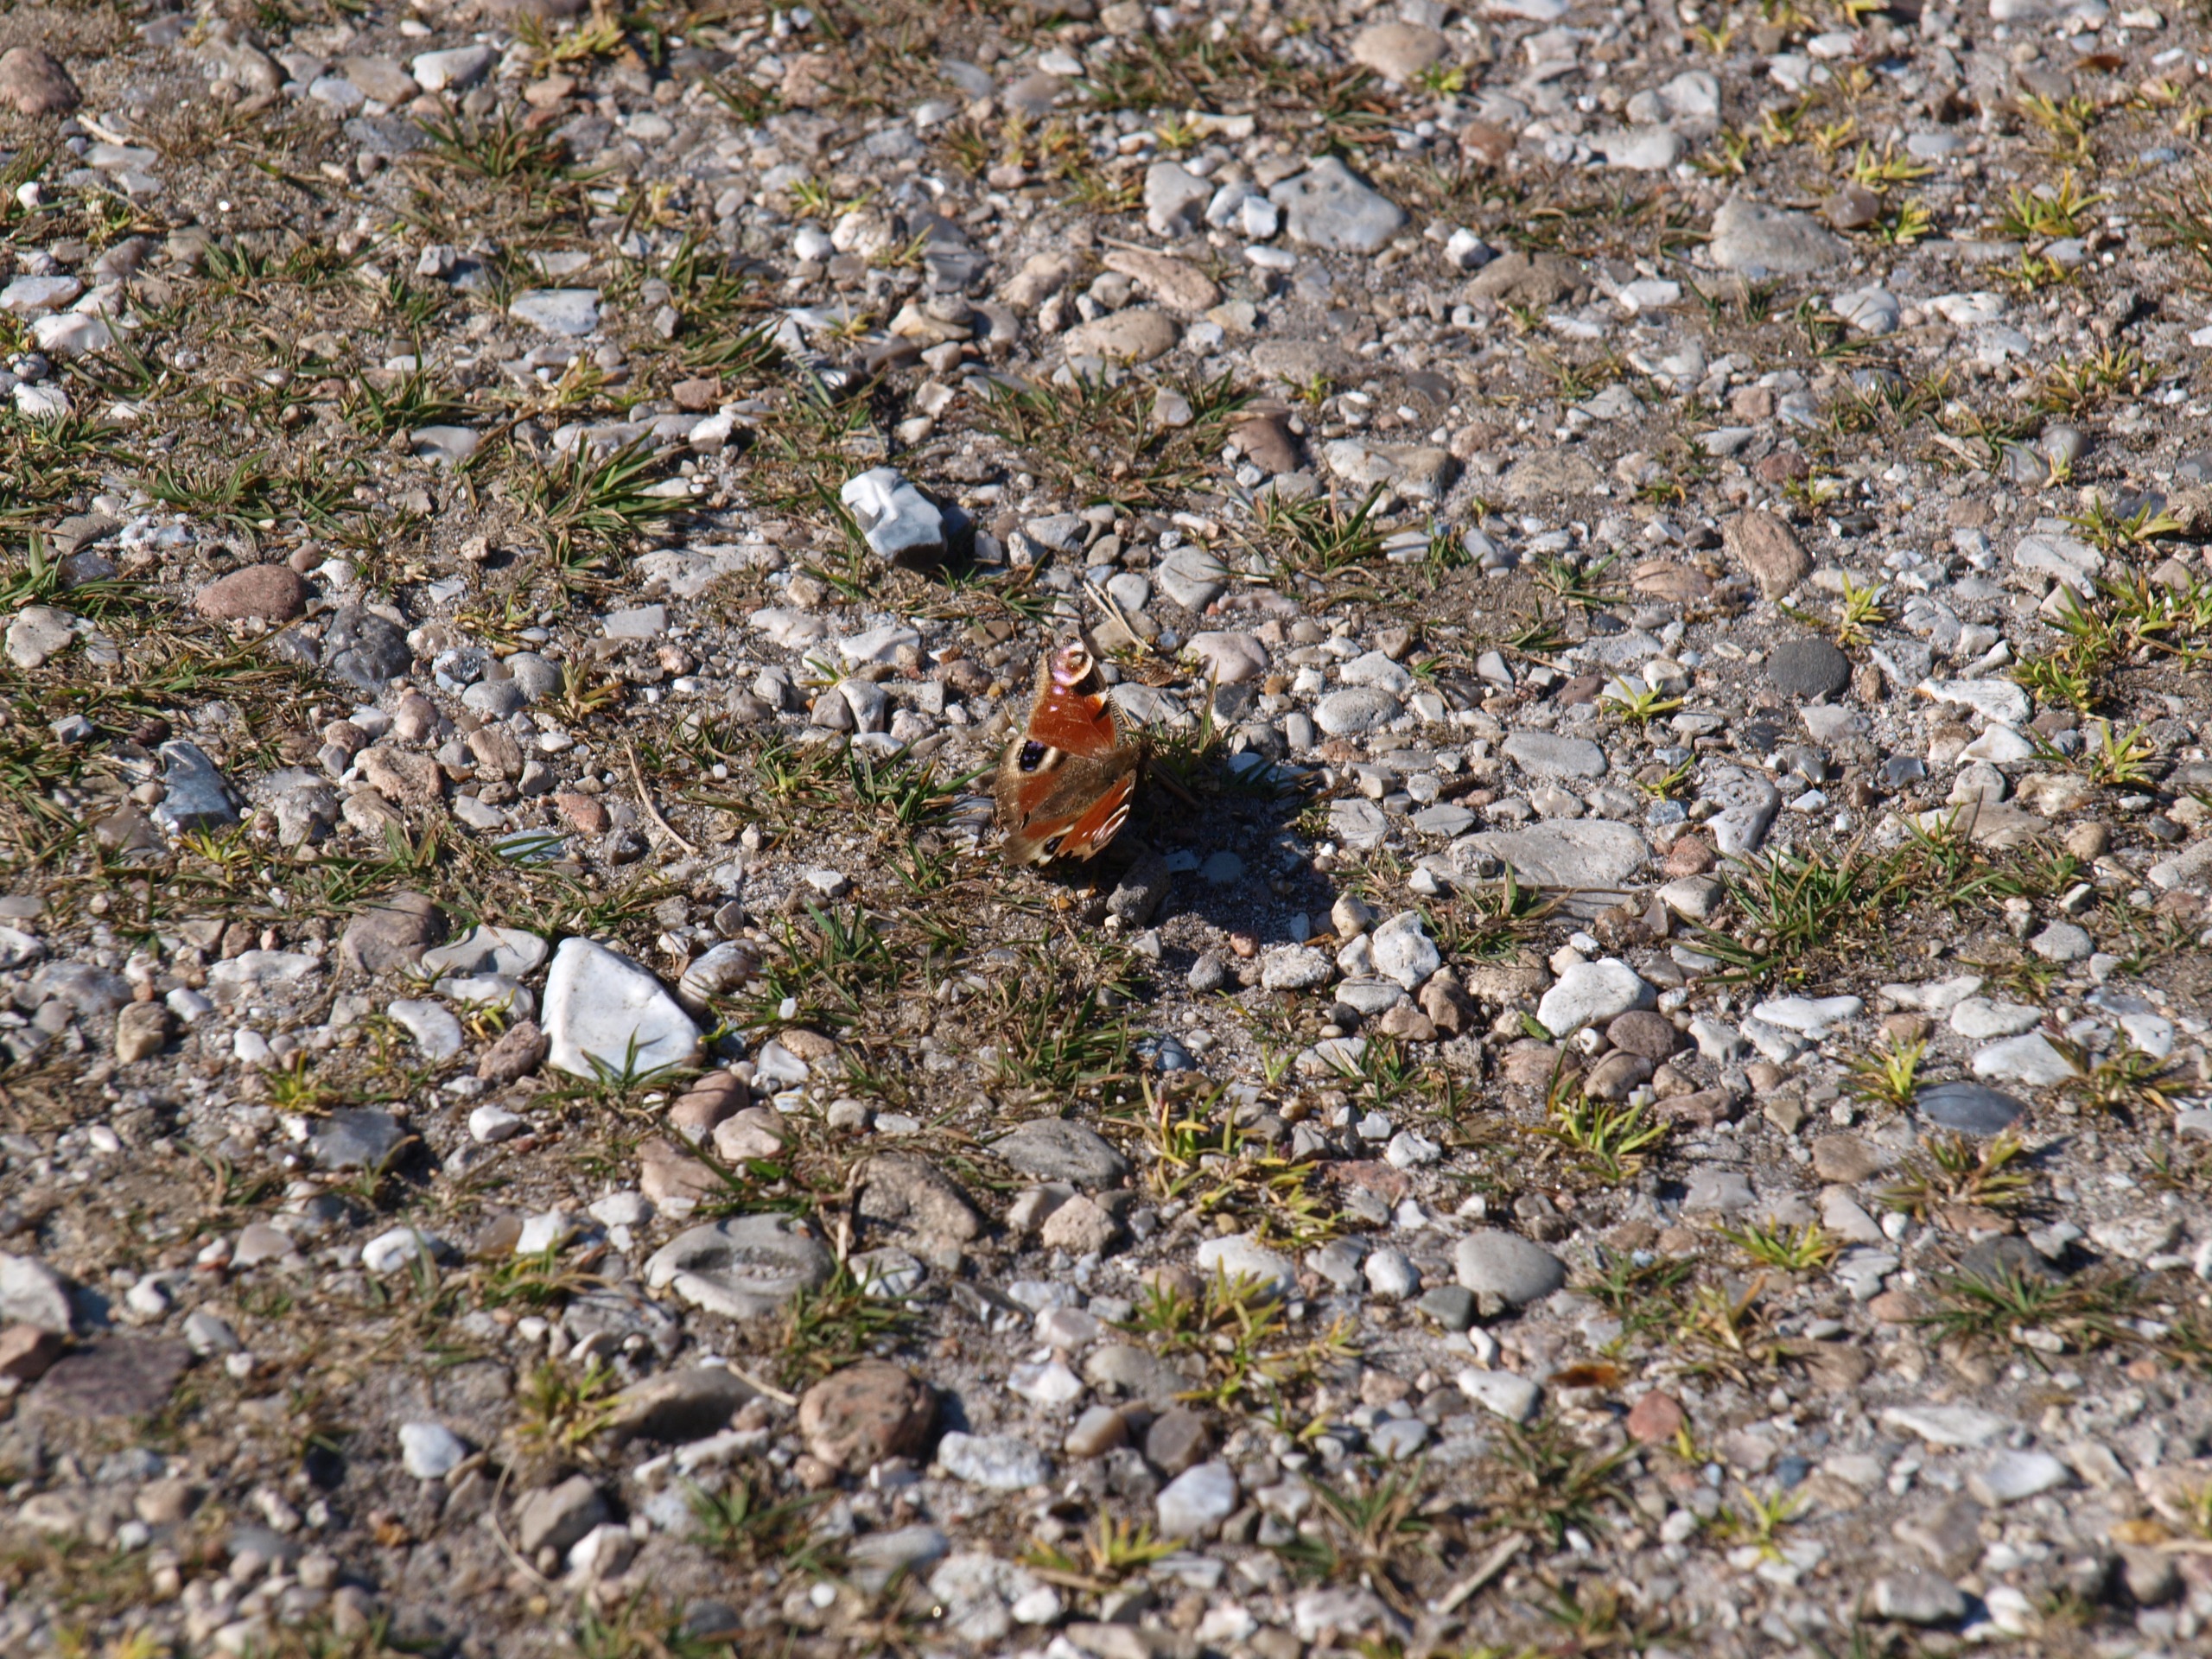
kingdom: Animalia
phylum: Arthropoda
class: Insecta
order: Lepidoptera
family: Nymphalidae
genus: Aglais
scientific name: Aglais io
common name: Dagpåfugleøje
